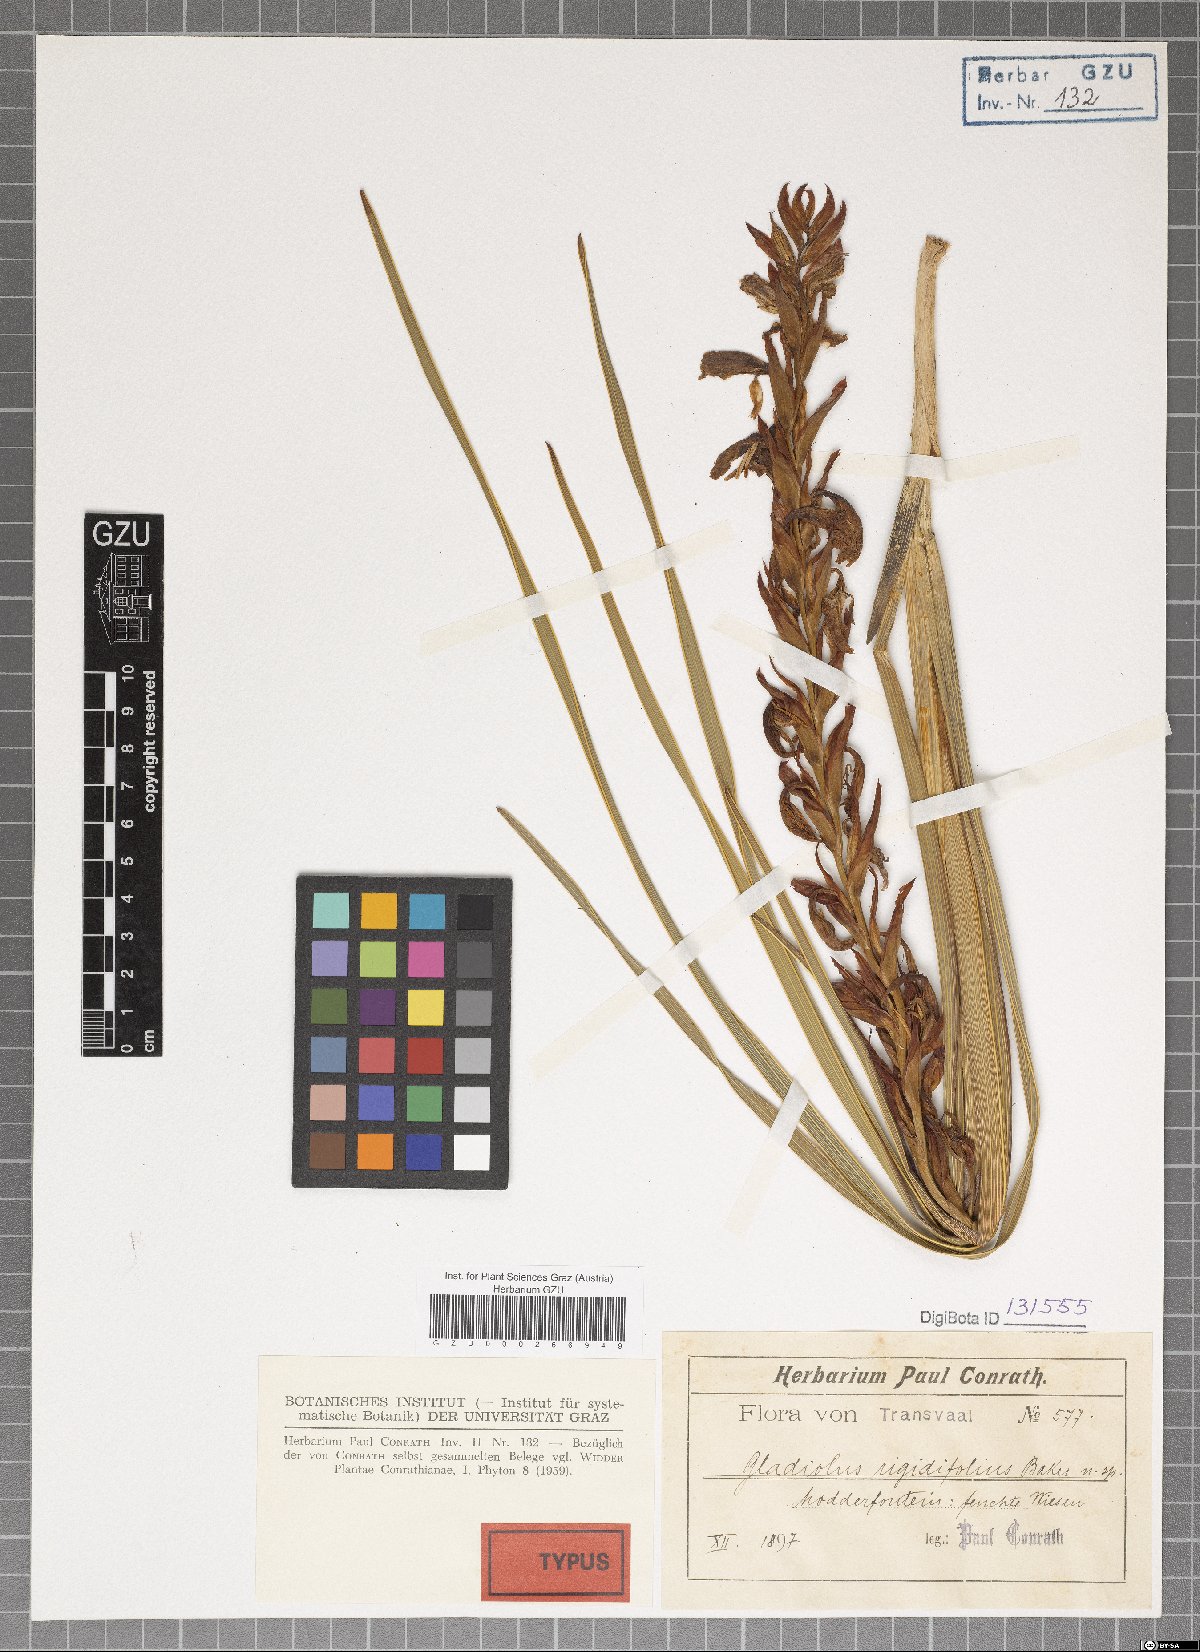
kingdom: Plantae
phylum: Tracheophyta
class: Liliopsida
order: Asparagales
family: Iridaceae
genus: Gladiolus
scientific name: Gladiolus sericeovillosus
